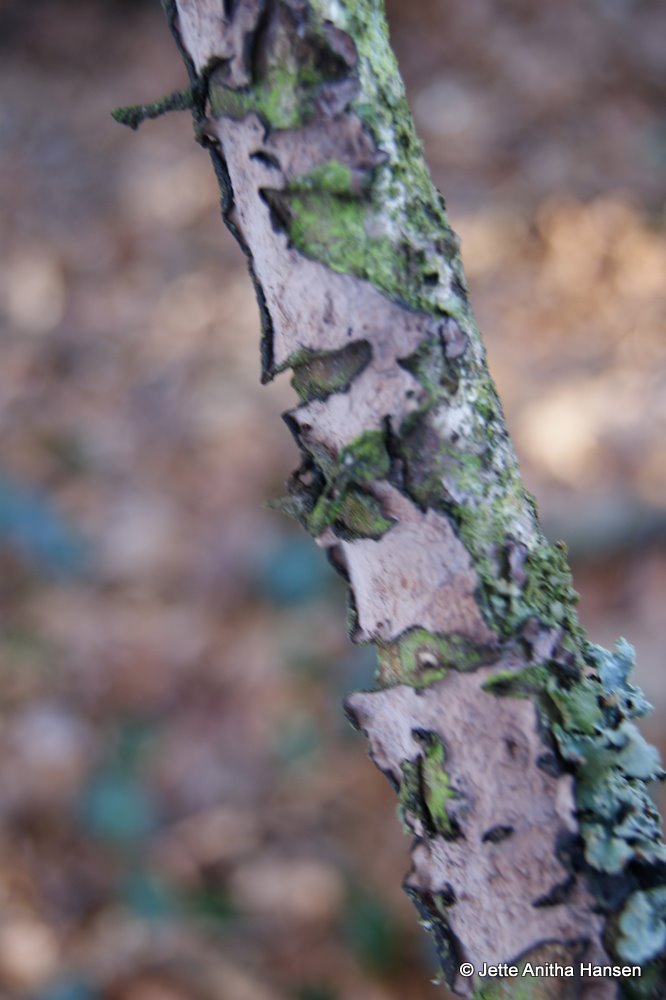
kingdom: Fungi
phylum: Basidiomycota
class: Agaricomycetes
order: Russulales
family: Peniophoraceae
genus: Peniophora
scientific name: Peniophora quercina
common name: ege-voksskind
